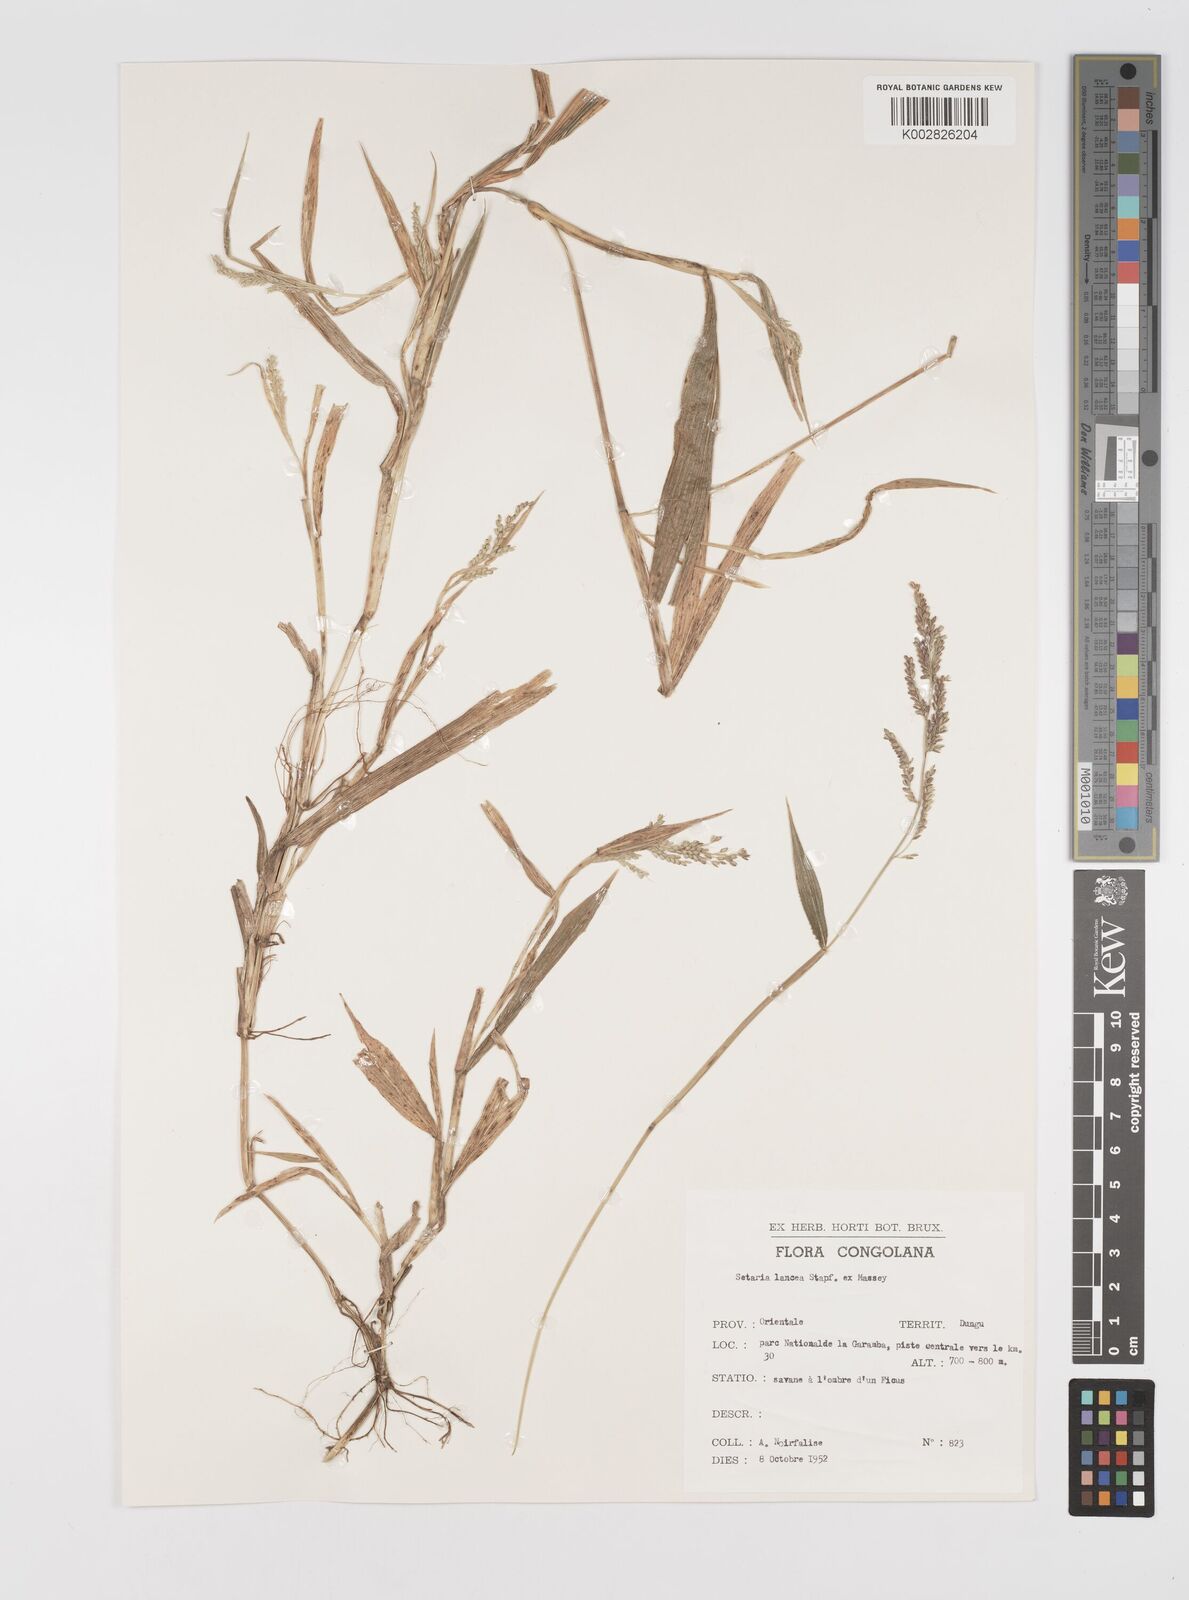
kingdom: Plantae
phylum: Tracheophyta
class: Liliopsida
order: Poales
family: Poaceae
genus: Setaria
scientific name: Setaria homonyma
